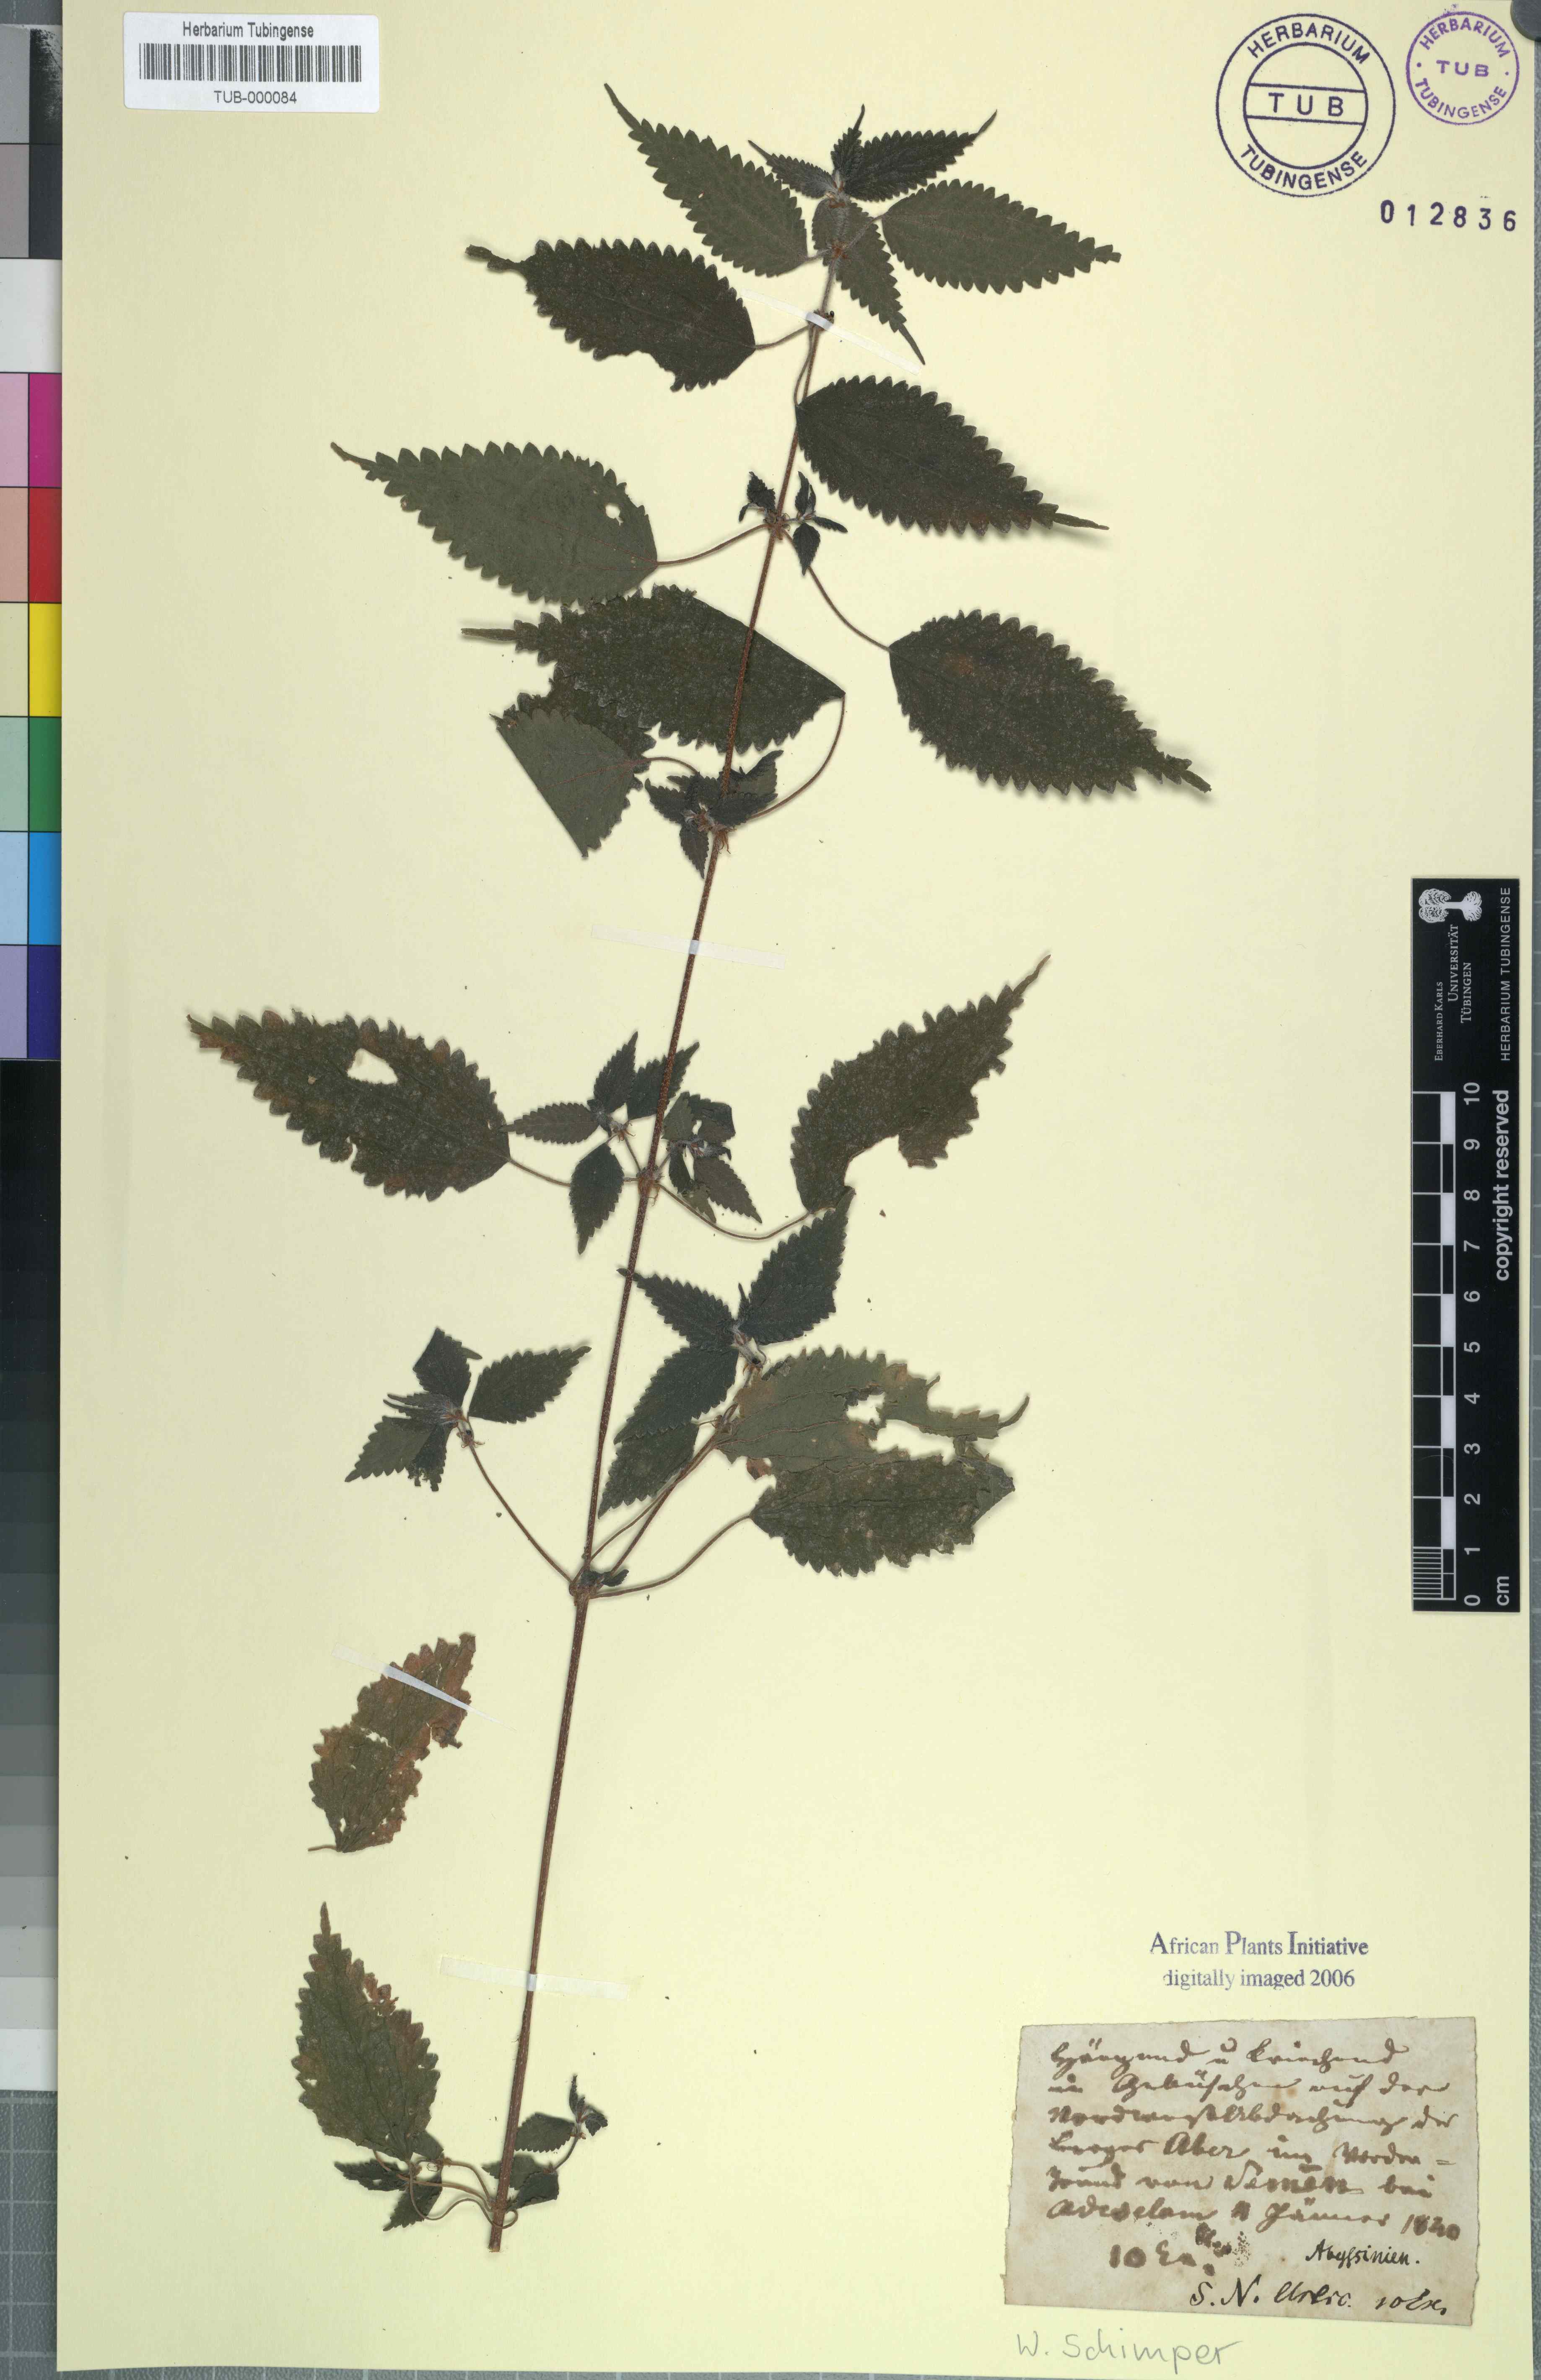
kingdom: Plantae
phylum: Tracheophyta
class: Magnoliopsida
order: Rosales
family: Urticaceae
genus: Urtica
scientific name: Urtica
